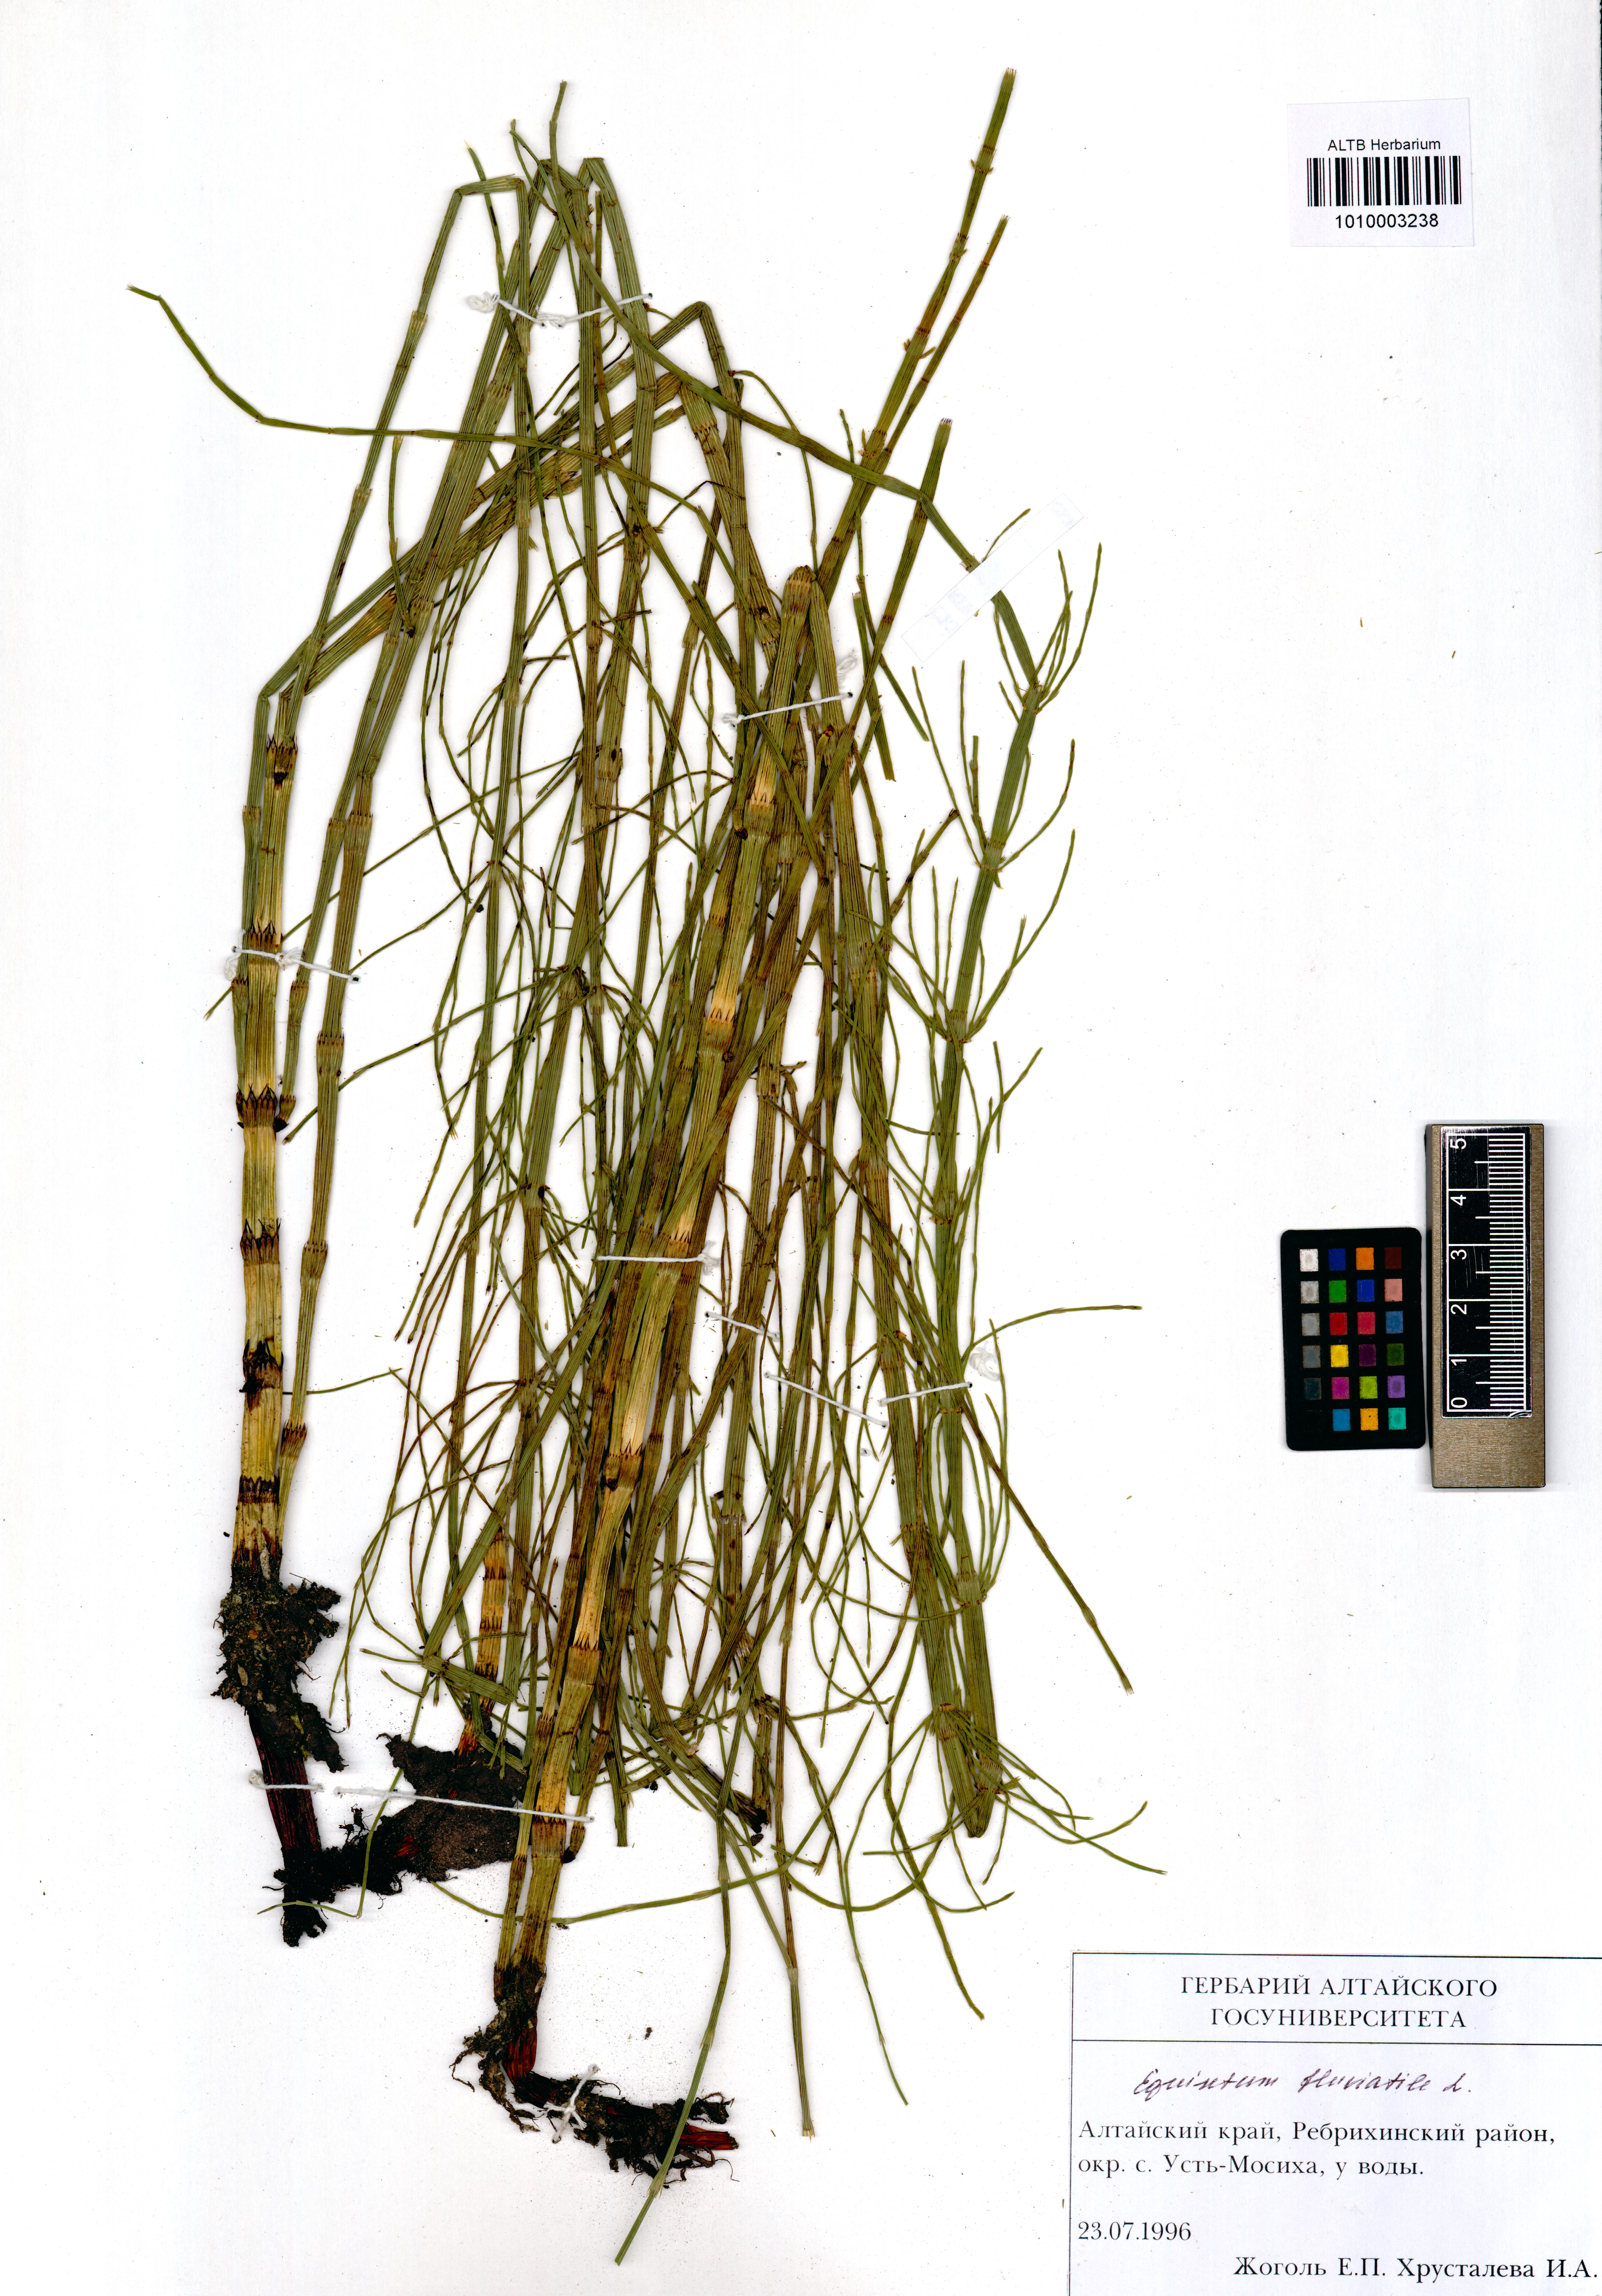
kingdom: Plantae
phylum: Tracheophyta
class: Polypodiopsida
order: Equisetales
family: Equisetaceae
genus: Equisetum
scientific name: Equisetum fluviatile
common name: Water horsetail
